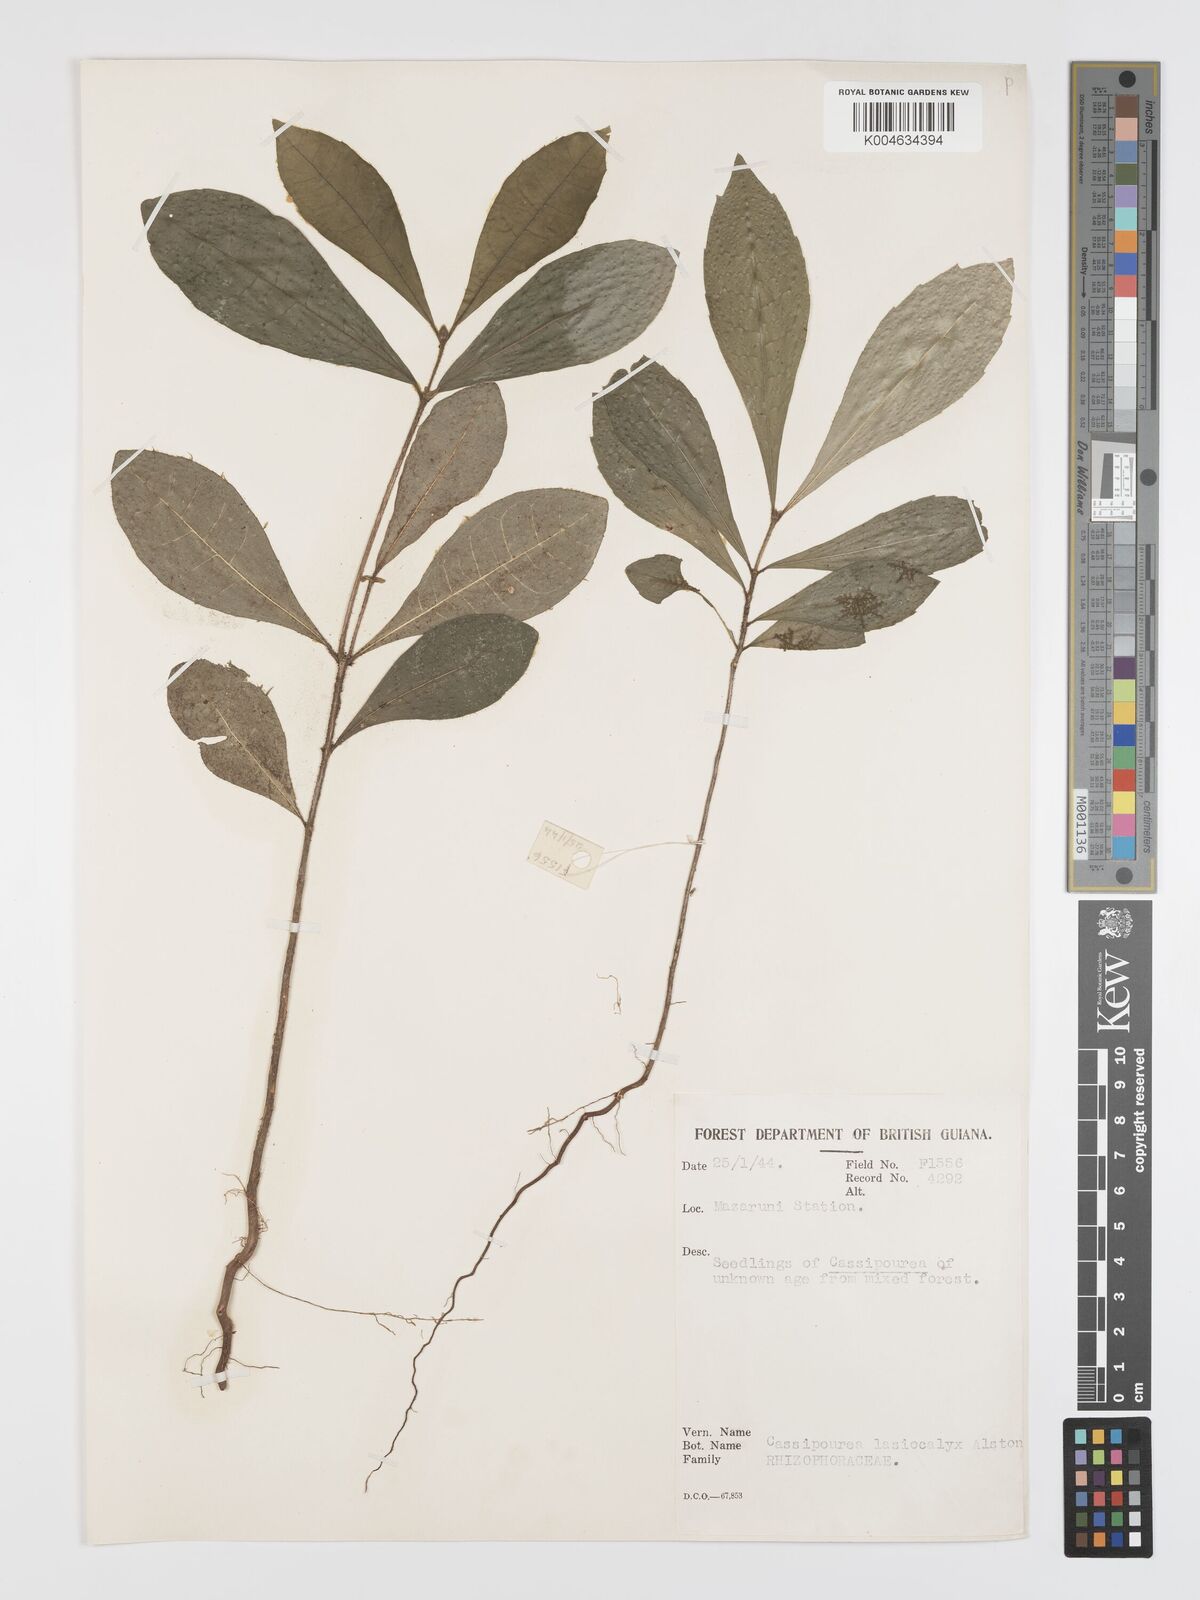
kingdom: Plantae
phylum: Tracheophyta
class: Magnoliopsida
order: Malpighiales
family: Rhizophoraceae
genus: Cassipourea
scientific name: Cassipourea lasiocalyx
